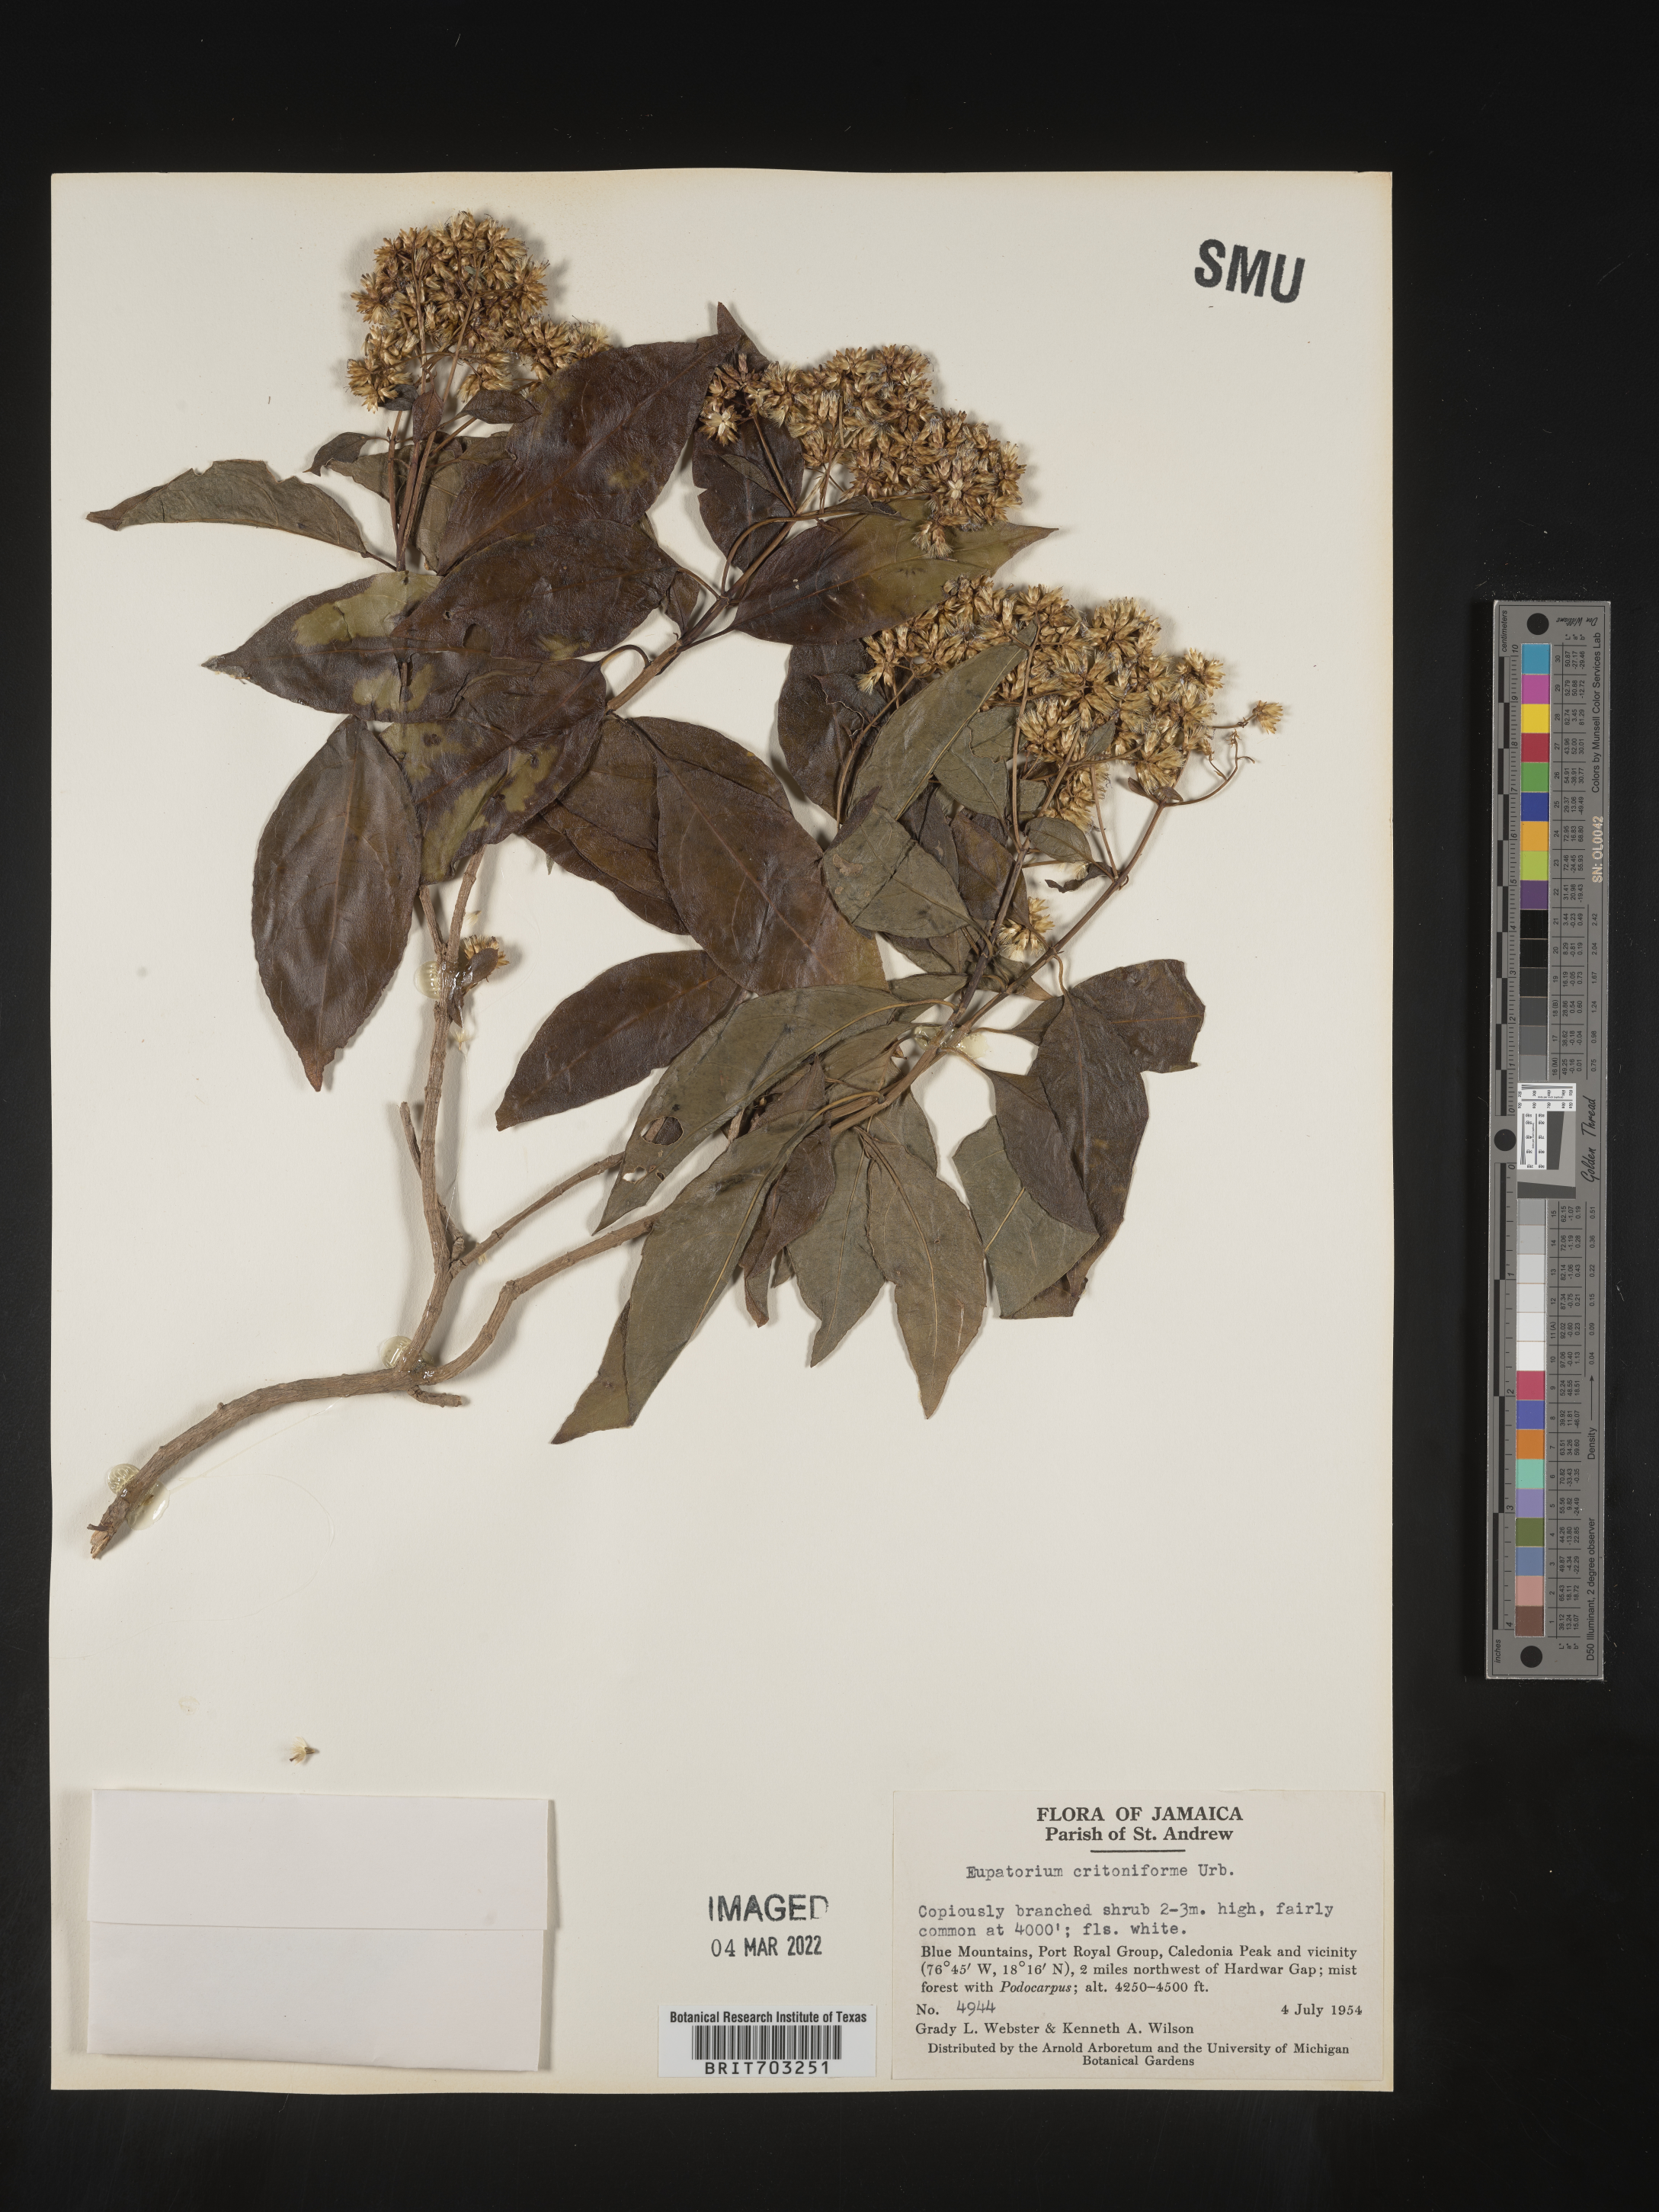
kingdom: Plantae
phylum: Tracheophyta
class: Magnoliopsida
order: Asterales
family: Asteraceae
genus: Eupatorium
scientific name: Eupatorium
